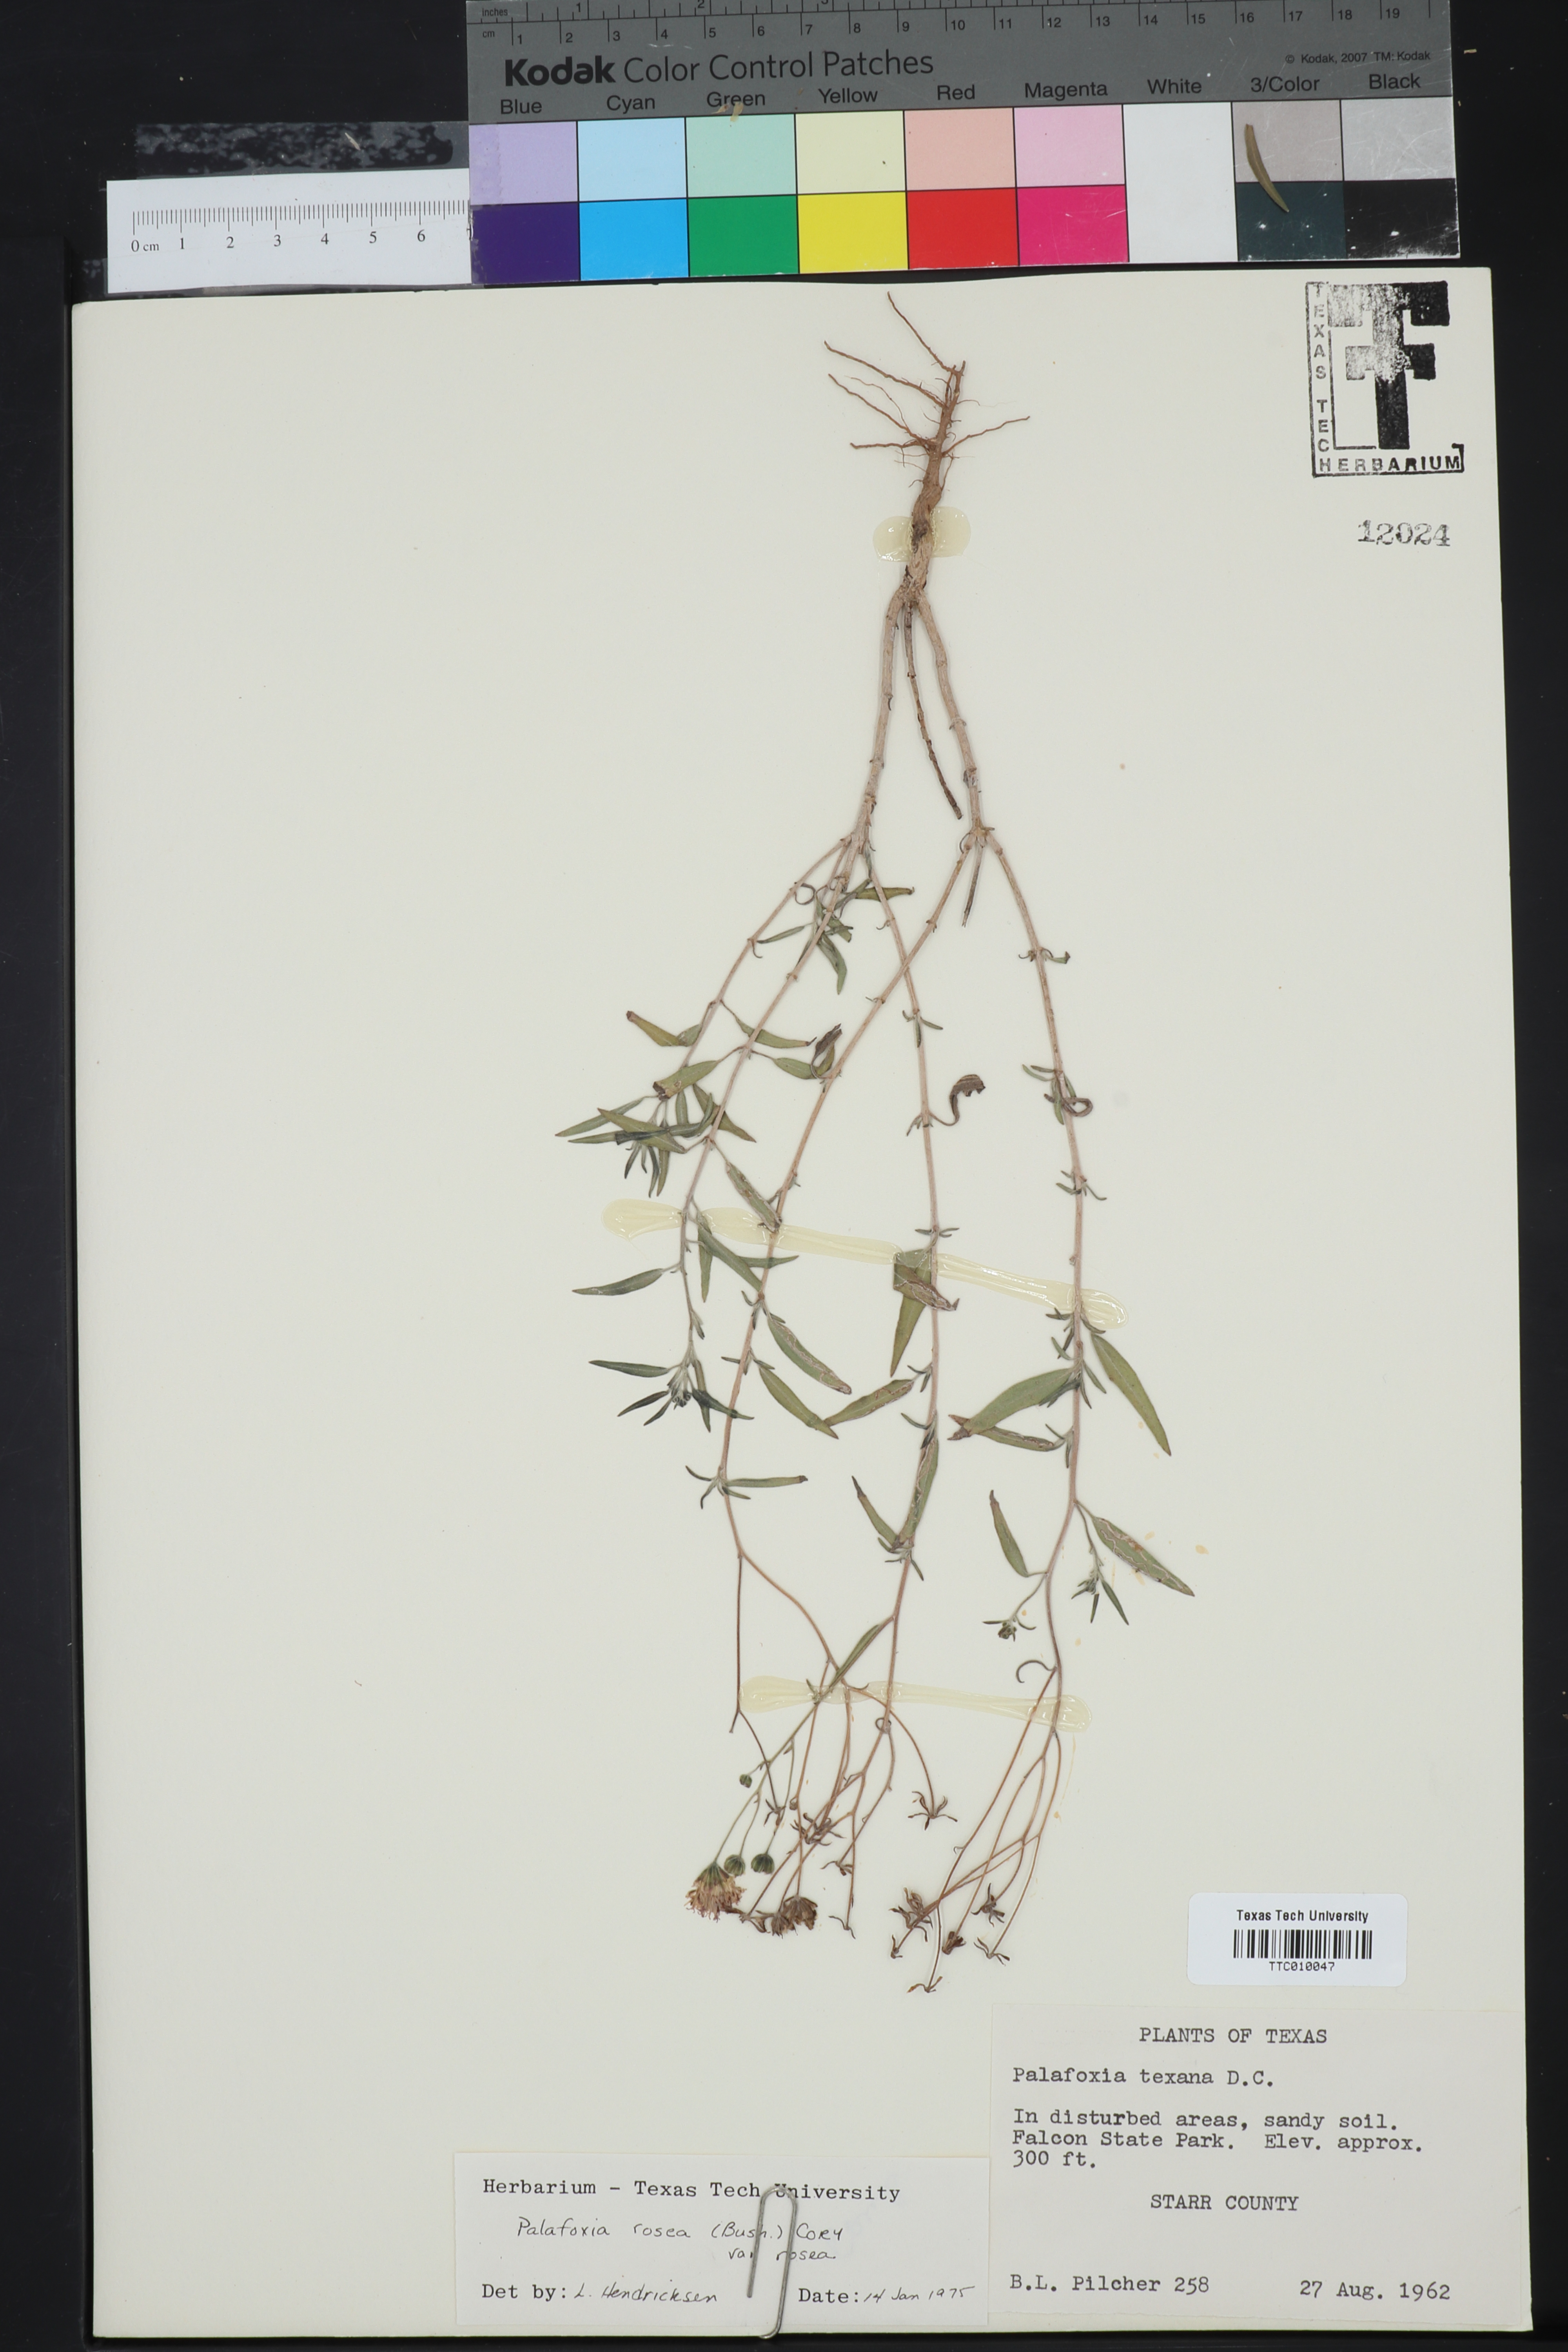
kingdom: Plantae
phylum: Tracheophyta
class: Magnoliopsida
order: Asterales
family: Asteraceae
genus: Palafoxia
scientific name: Palafoxia rosea
